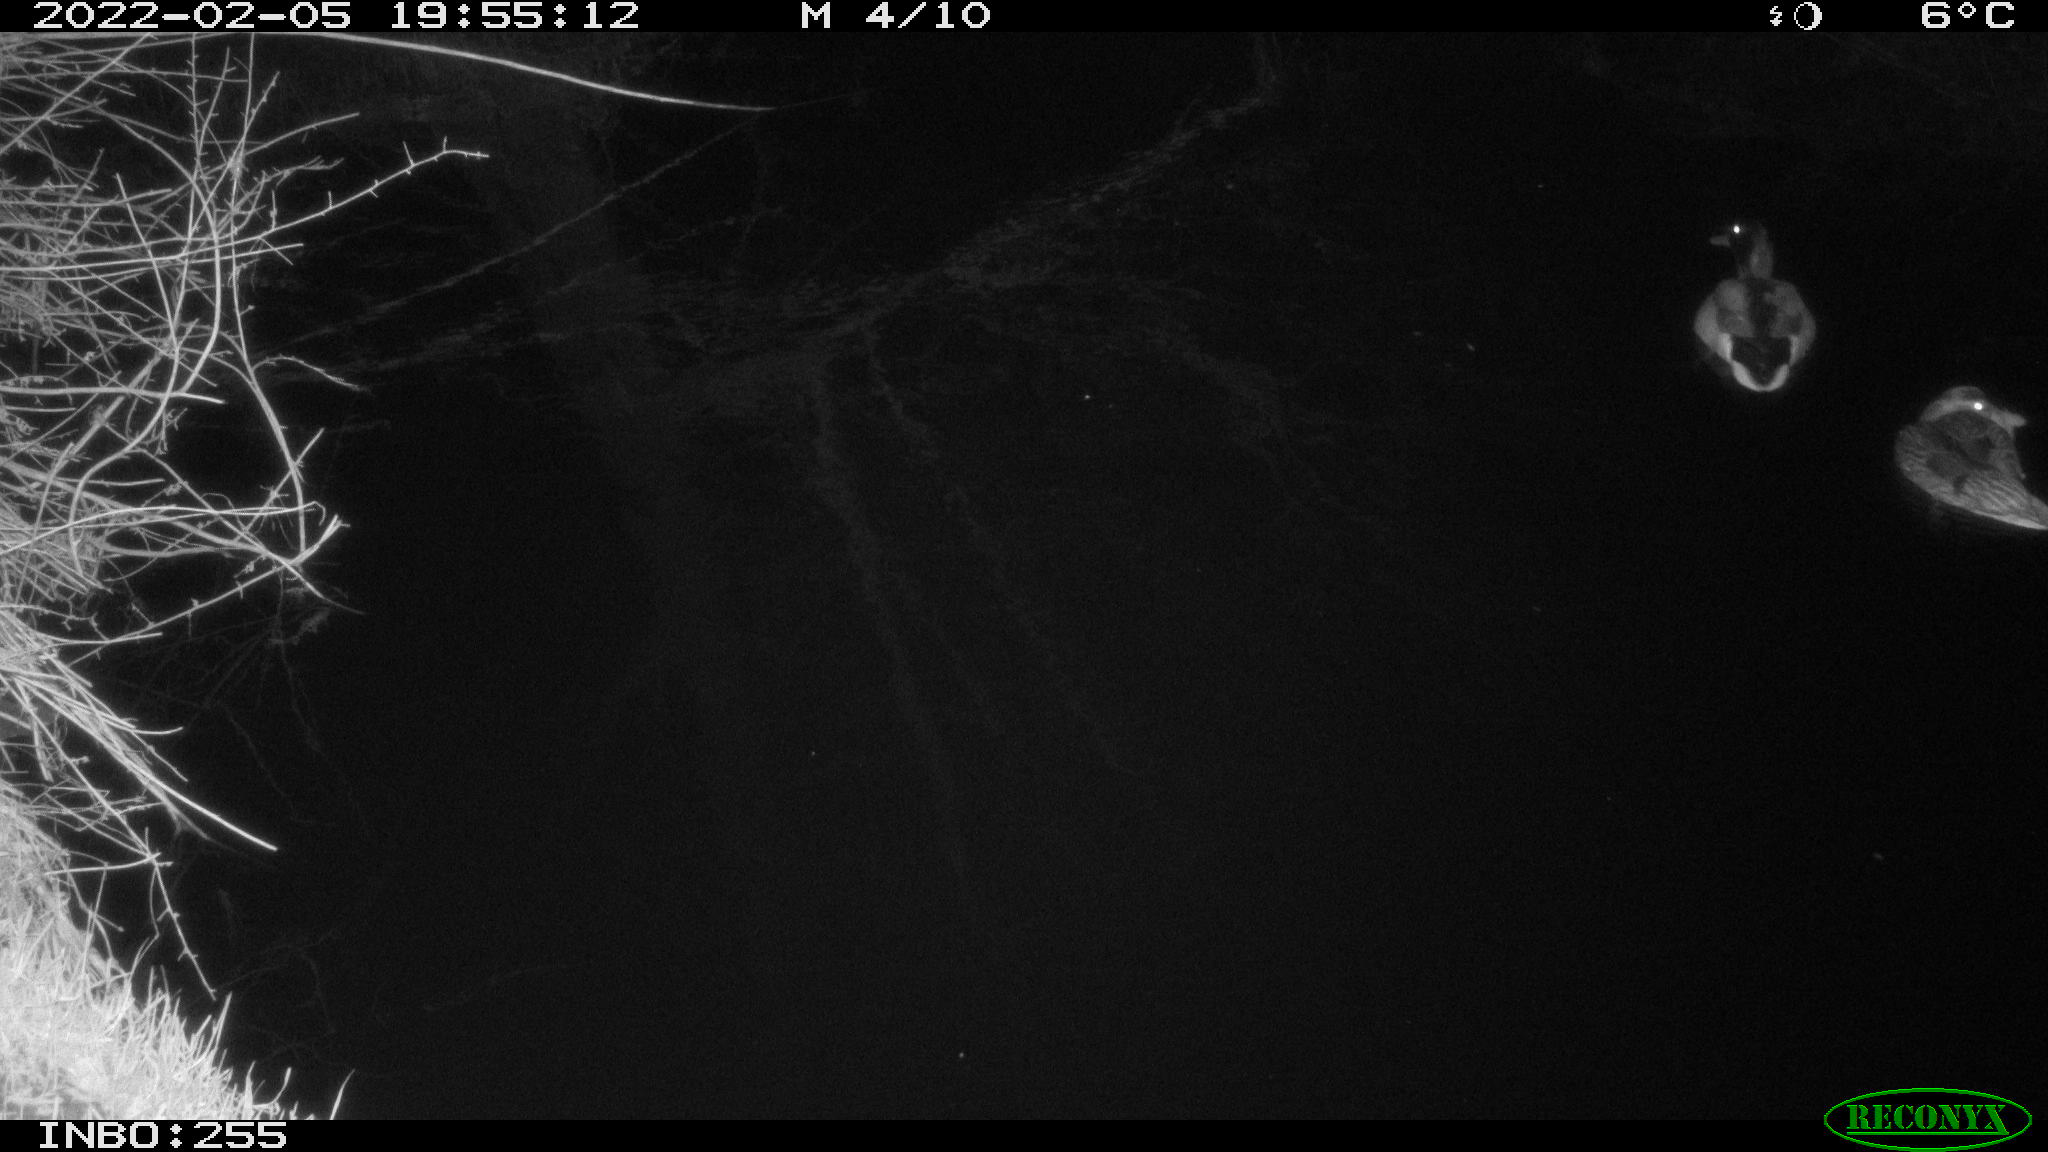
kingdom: Animalia
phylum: Chordata
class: Aves
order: Anseriformes
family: Anatidae
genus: Anas
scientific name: Anas platyrhynchos
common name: Mallard
